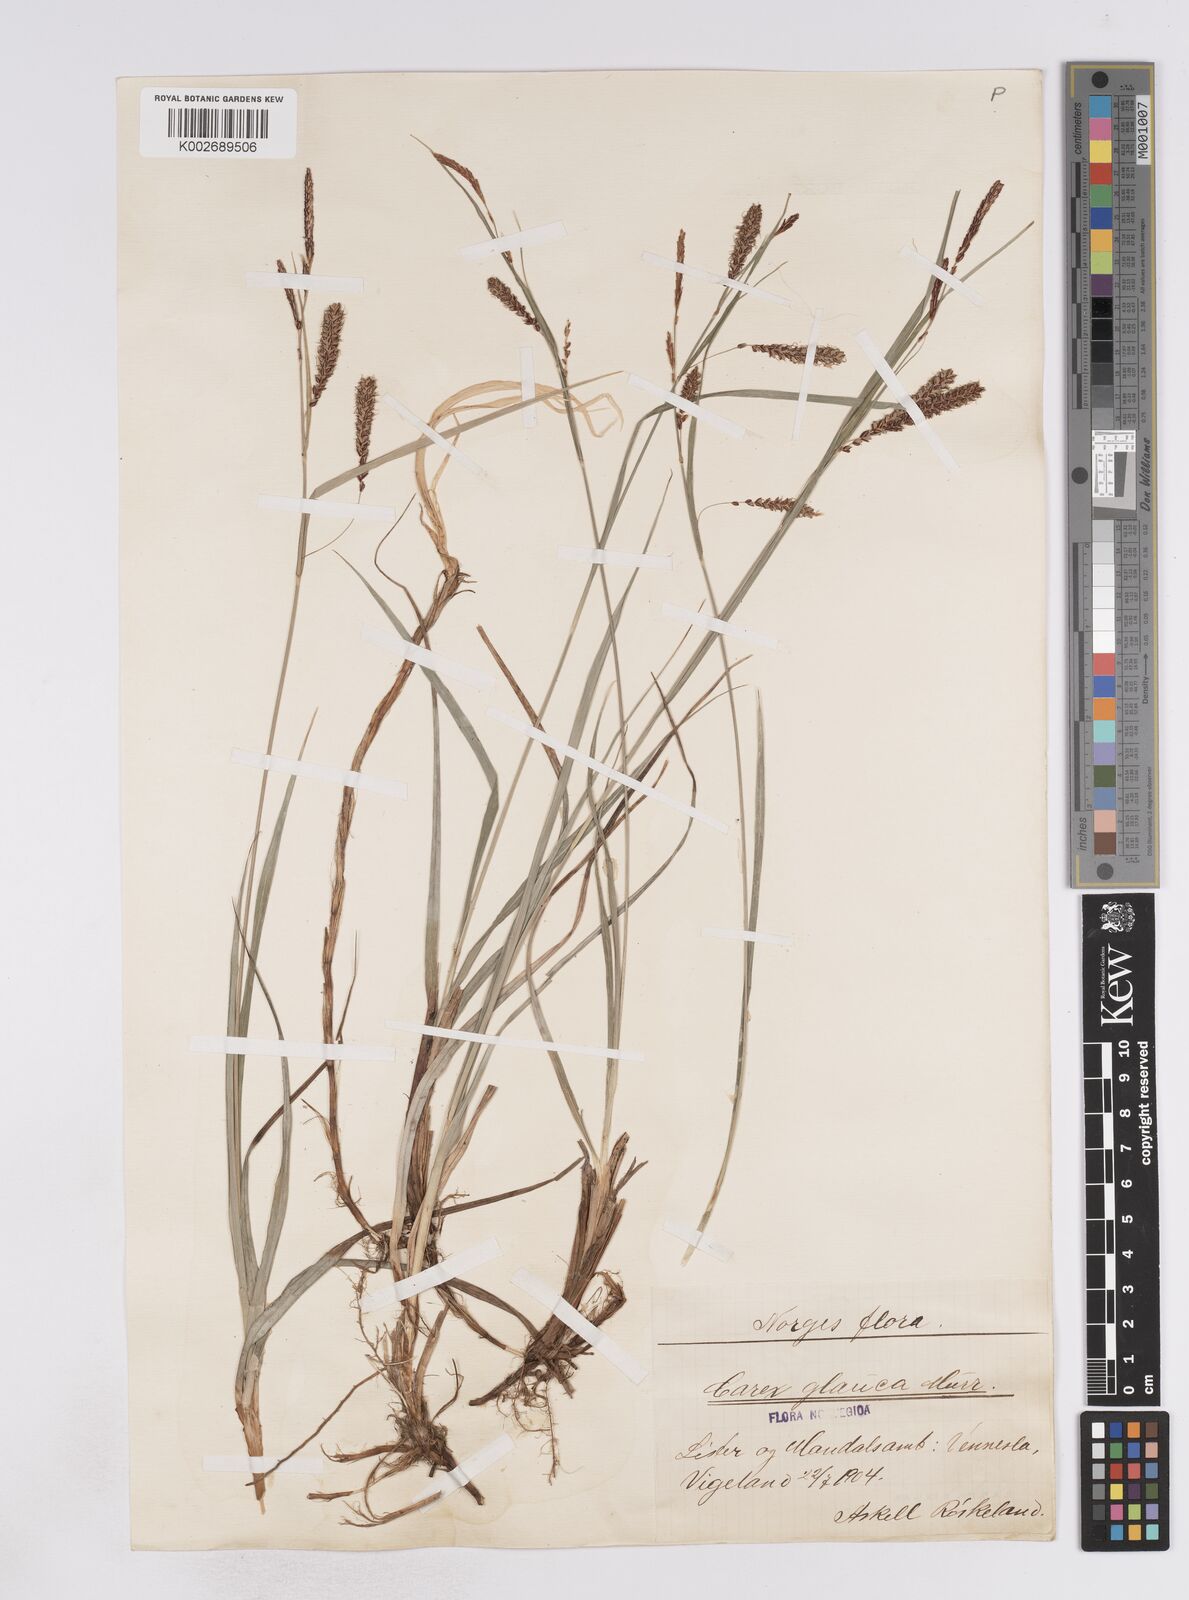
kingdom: Plantae
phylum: Tracheophyta
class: Liliopsida
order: Poales
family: Cyperaceae
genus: Carex
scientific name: Carex flacca
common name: Glaucous sedge
